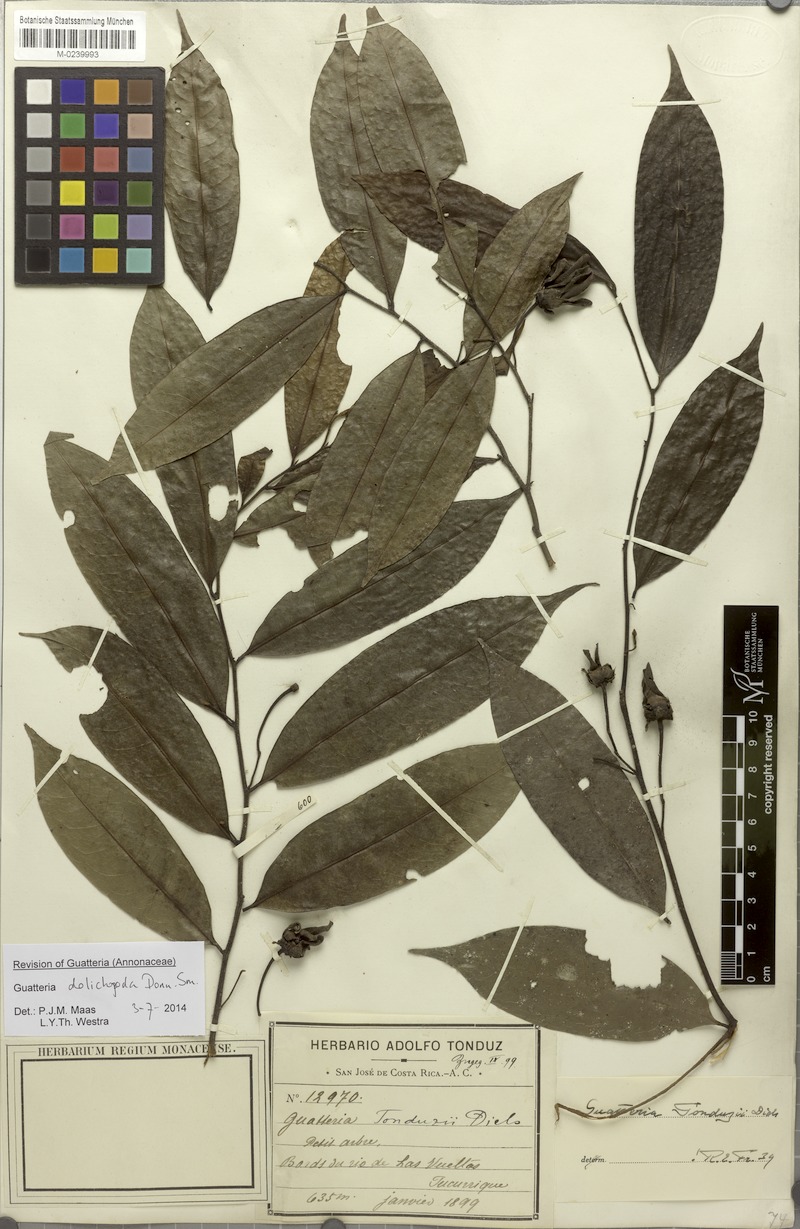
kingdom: Plantae
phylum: Tracheophyta
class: Magnoliopsida
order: Magnoliales
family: Annonaceae
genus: Guatteria
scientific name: Guatteria dolichopoda
